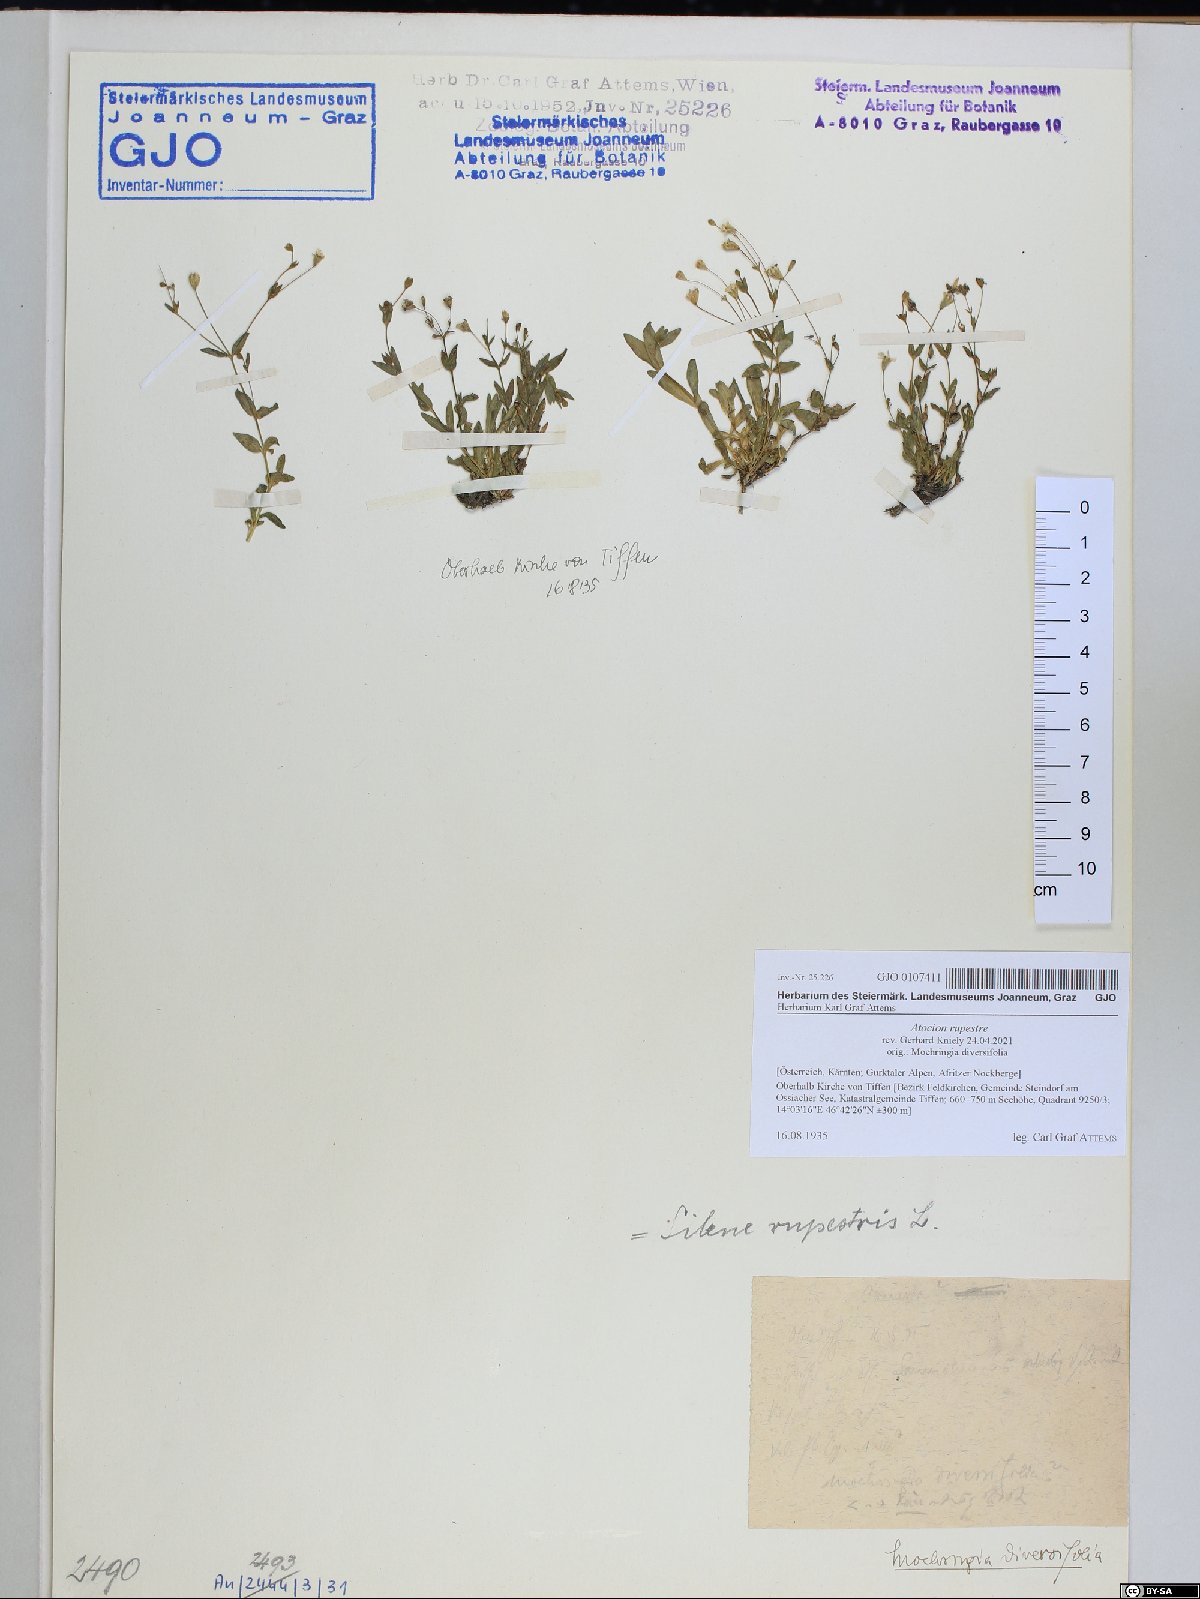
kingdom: Plantae
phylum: Tracheophyta
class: Magnoliopsida
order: Caryophyllales
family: Caryophyllaceae
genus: Atocion
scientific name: Atocion rupestre
